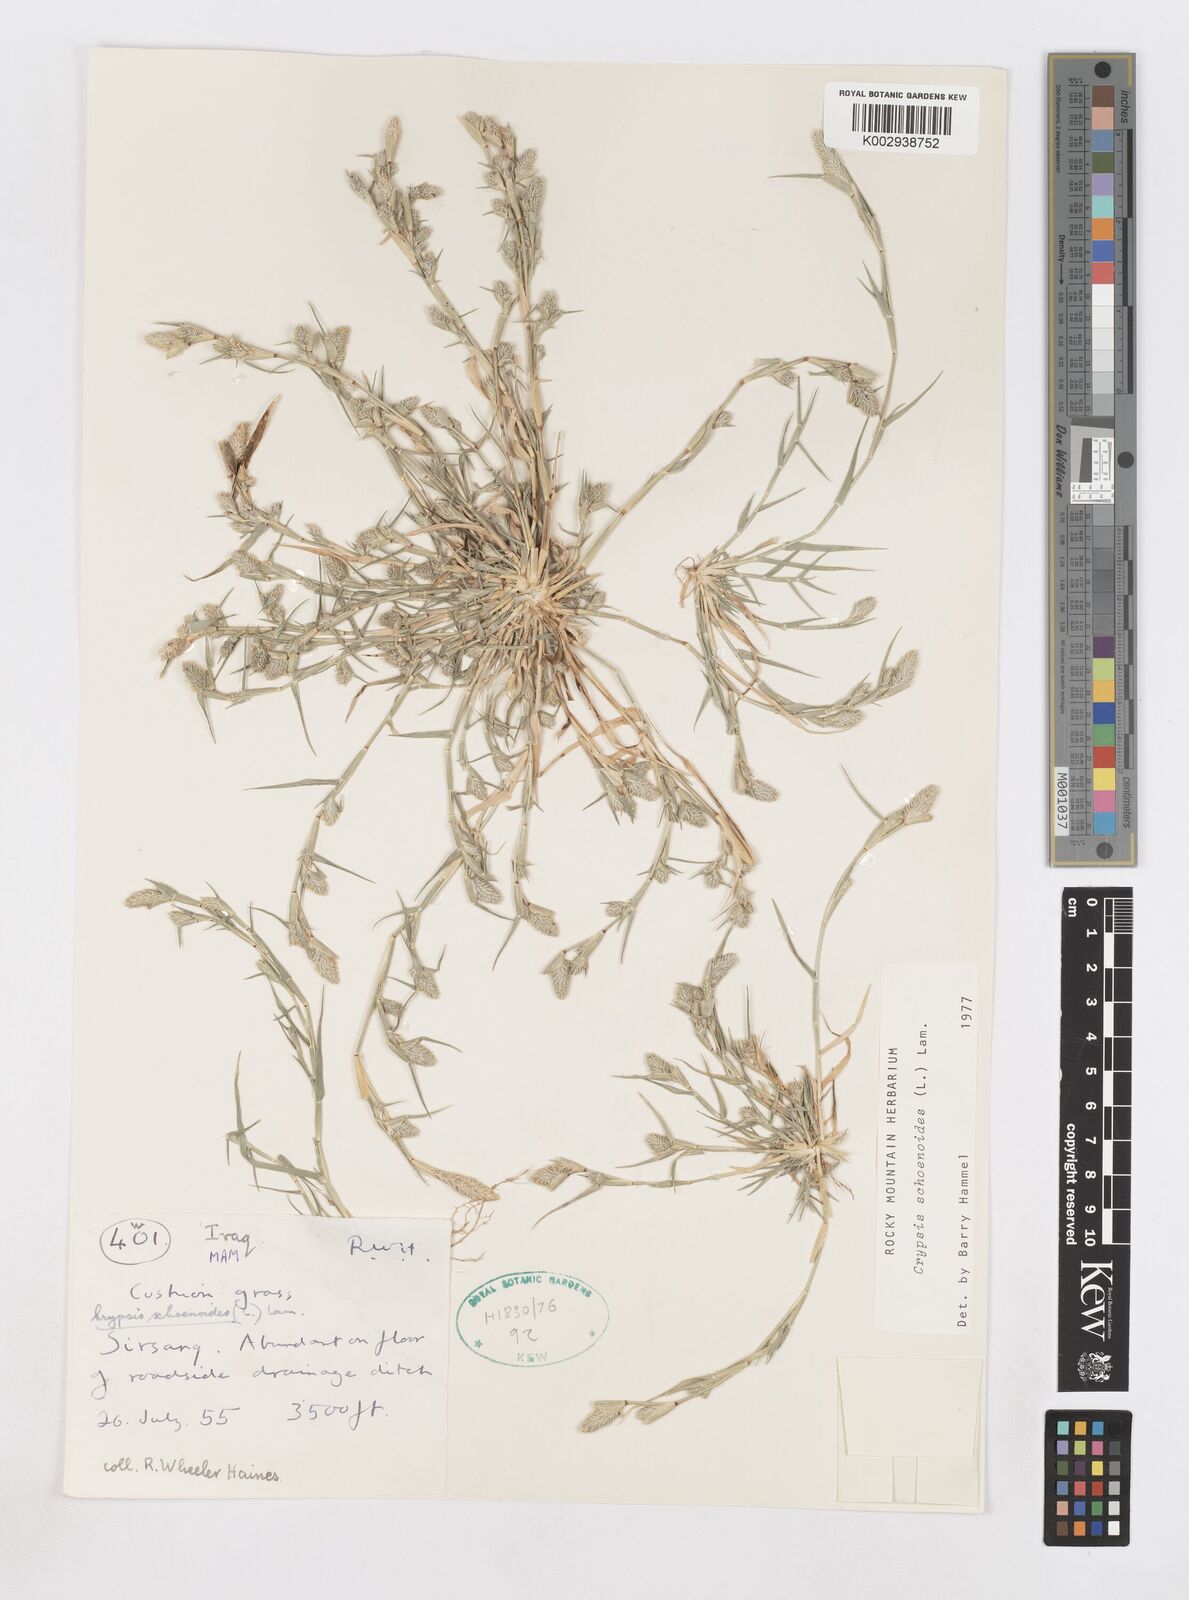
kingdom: Plantae
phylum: Tracheophyta
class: Liliopsida
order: Poales
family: Poaceae
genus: Sporobolus
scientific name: Sporobolus schoenoides
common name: Rush-like timothy
